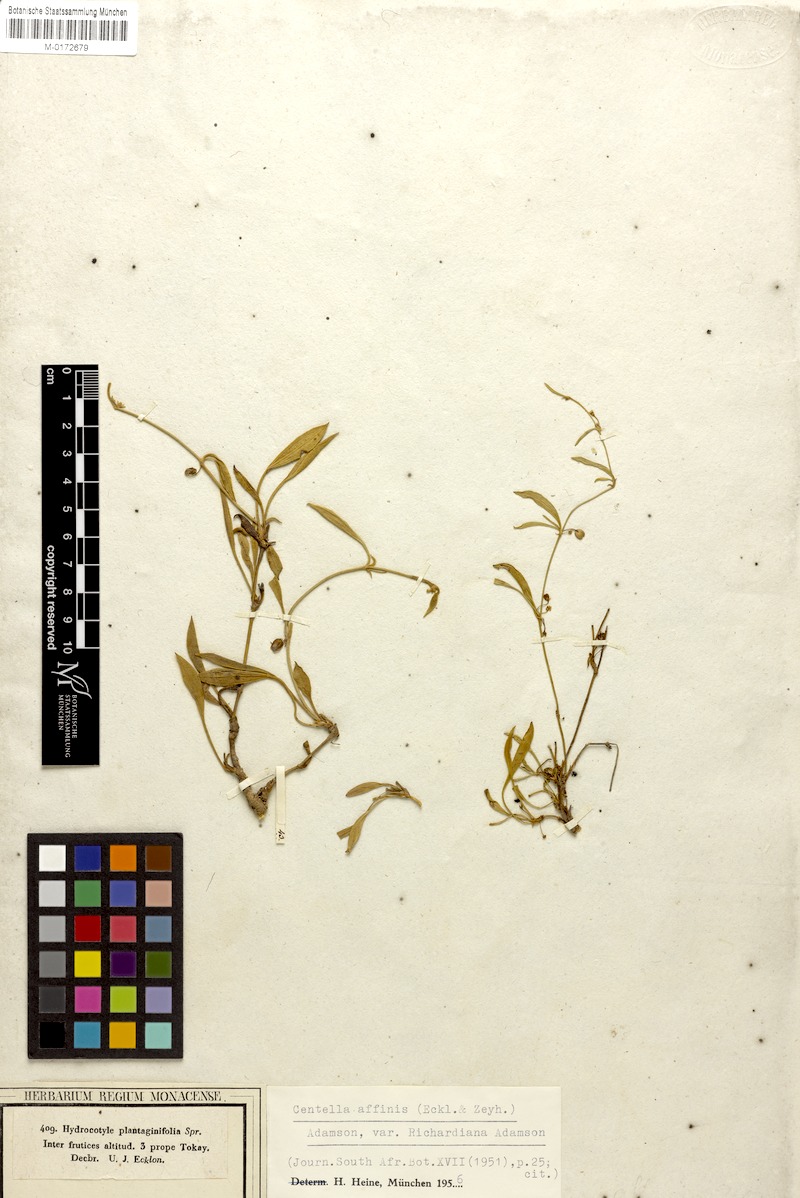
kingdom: Plantae
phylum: Tracheophyta
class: Magnoliopsida
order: Apiales
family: Apiaceae
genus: Centella
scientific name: Centella affinis
